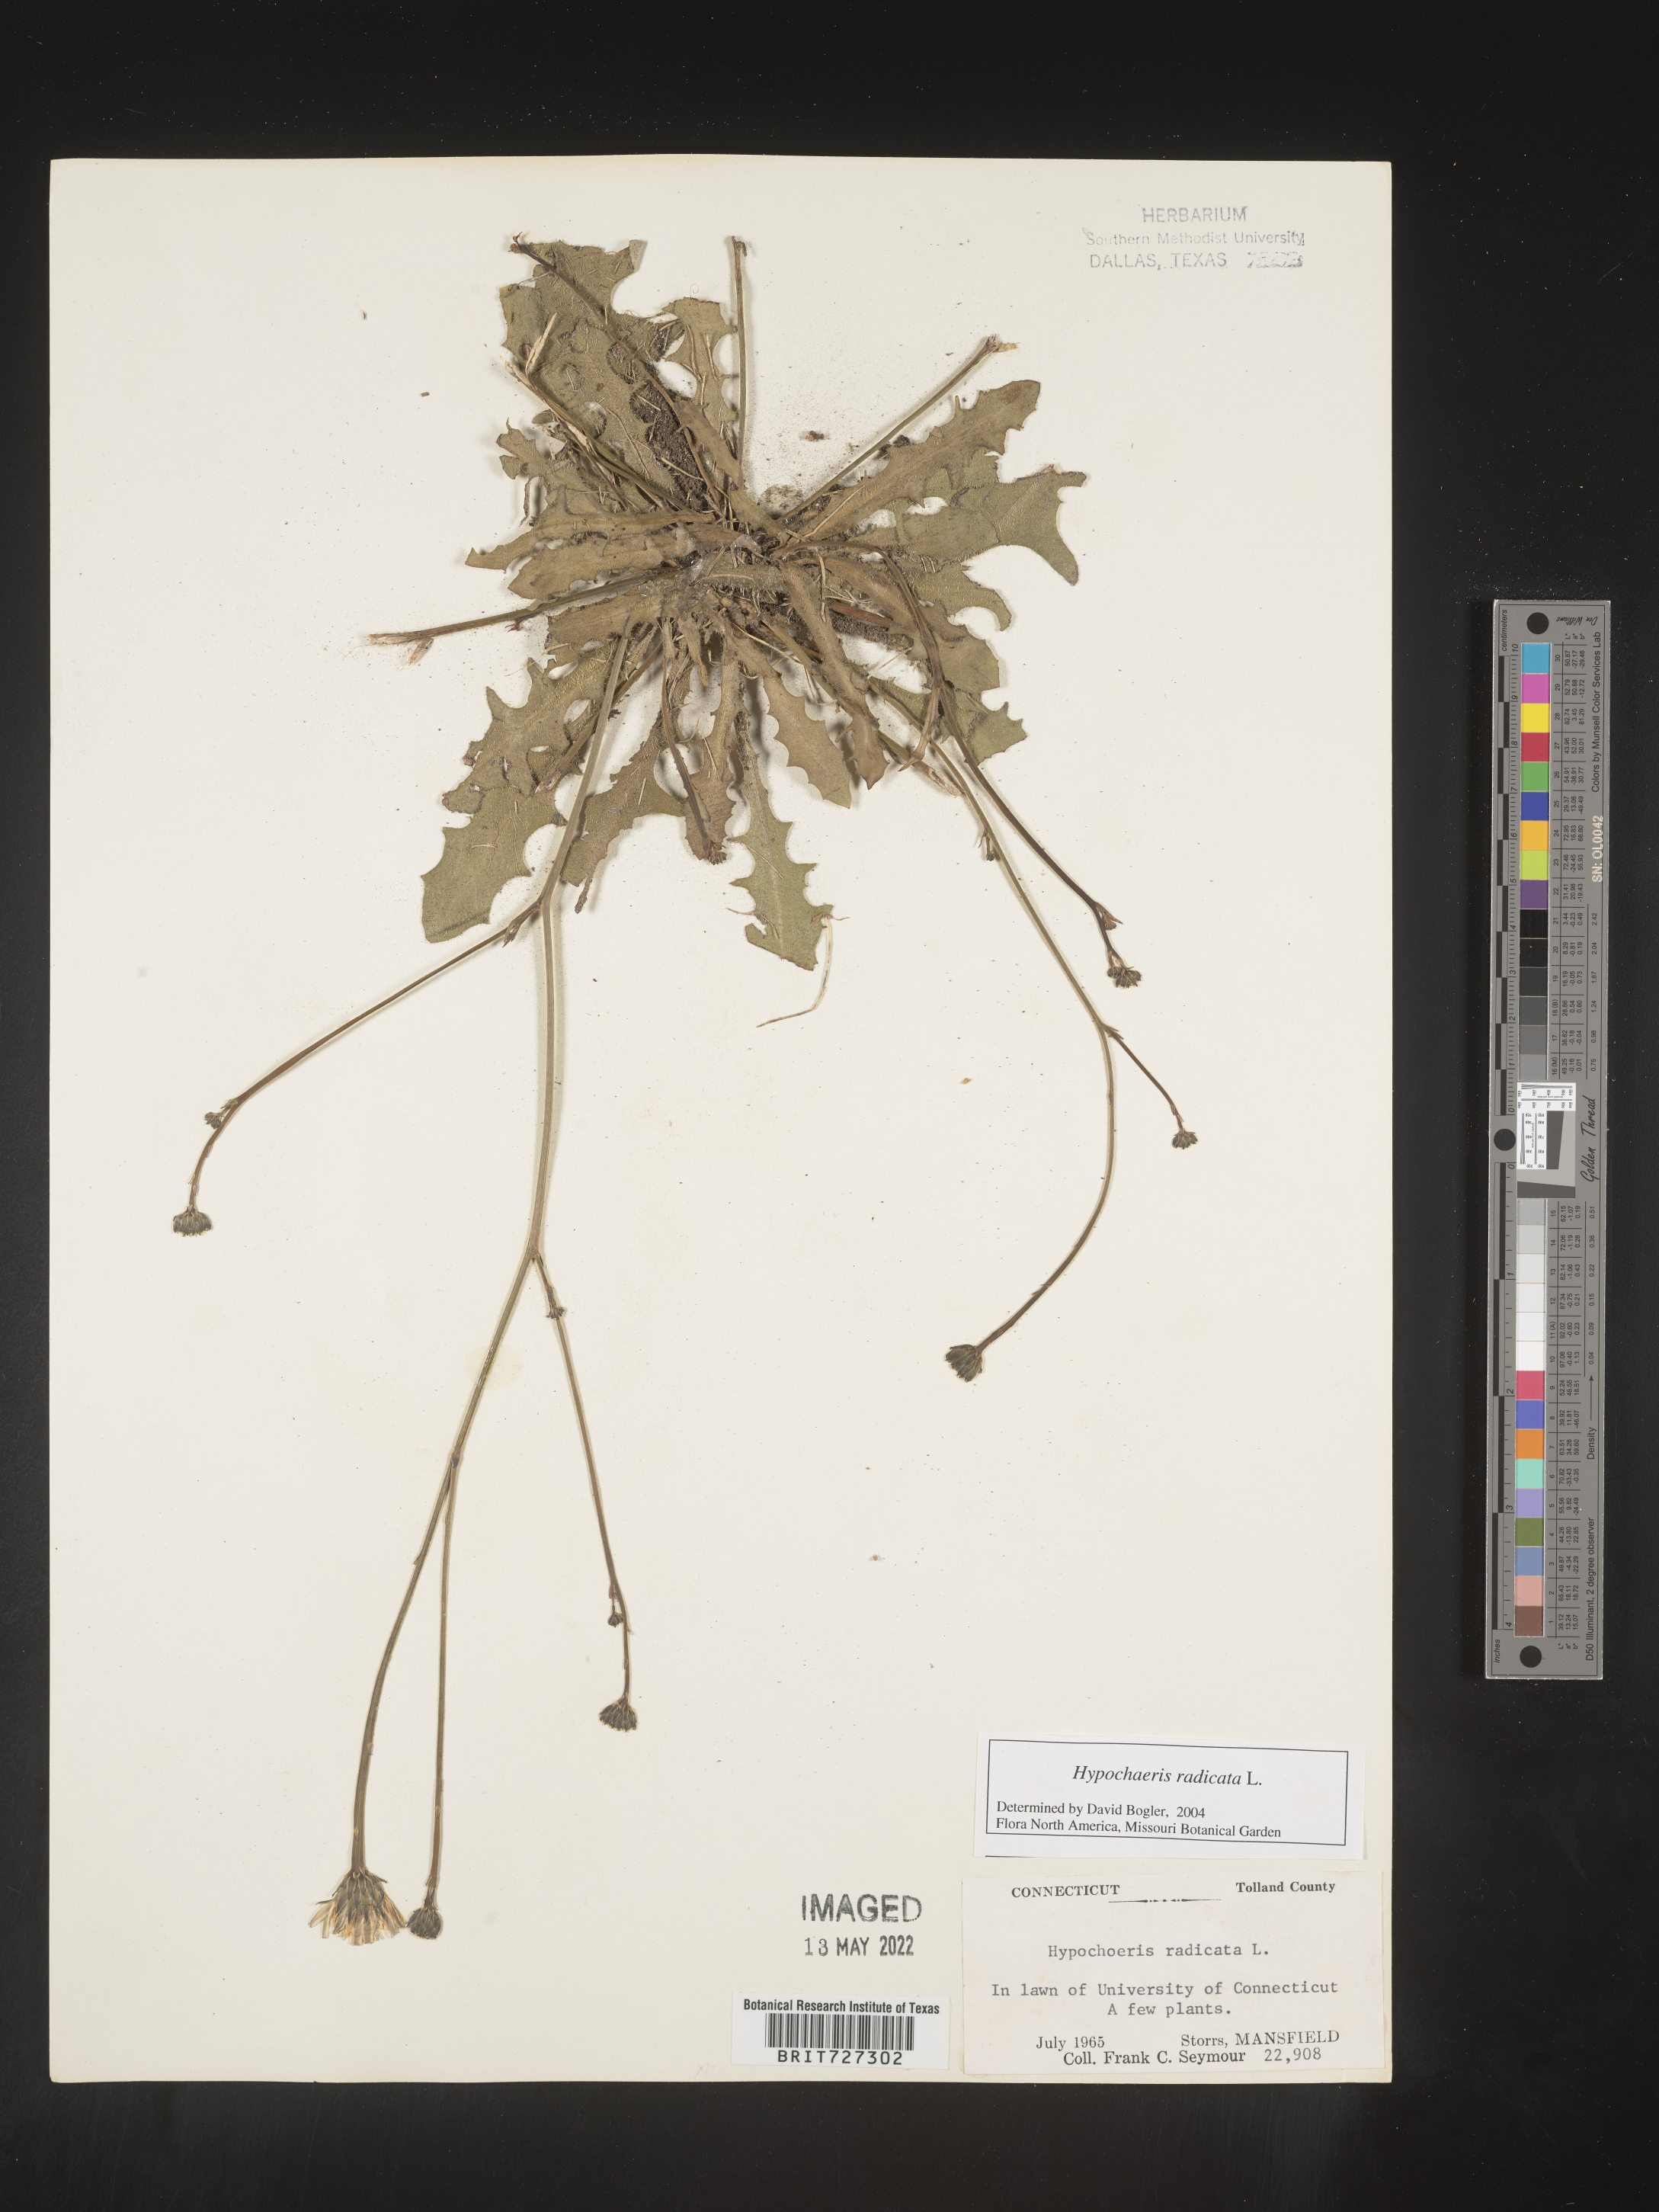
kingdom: Plantae
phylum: Tracheophyta
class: Magnoliopsida
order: Asterales
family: Asteraceae
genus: Hypochaeris
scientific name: Hypochaeris radicata
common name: Flatweed
